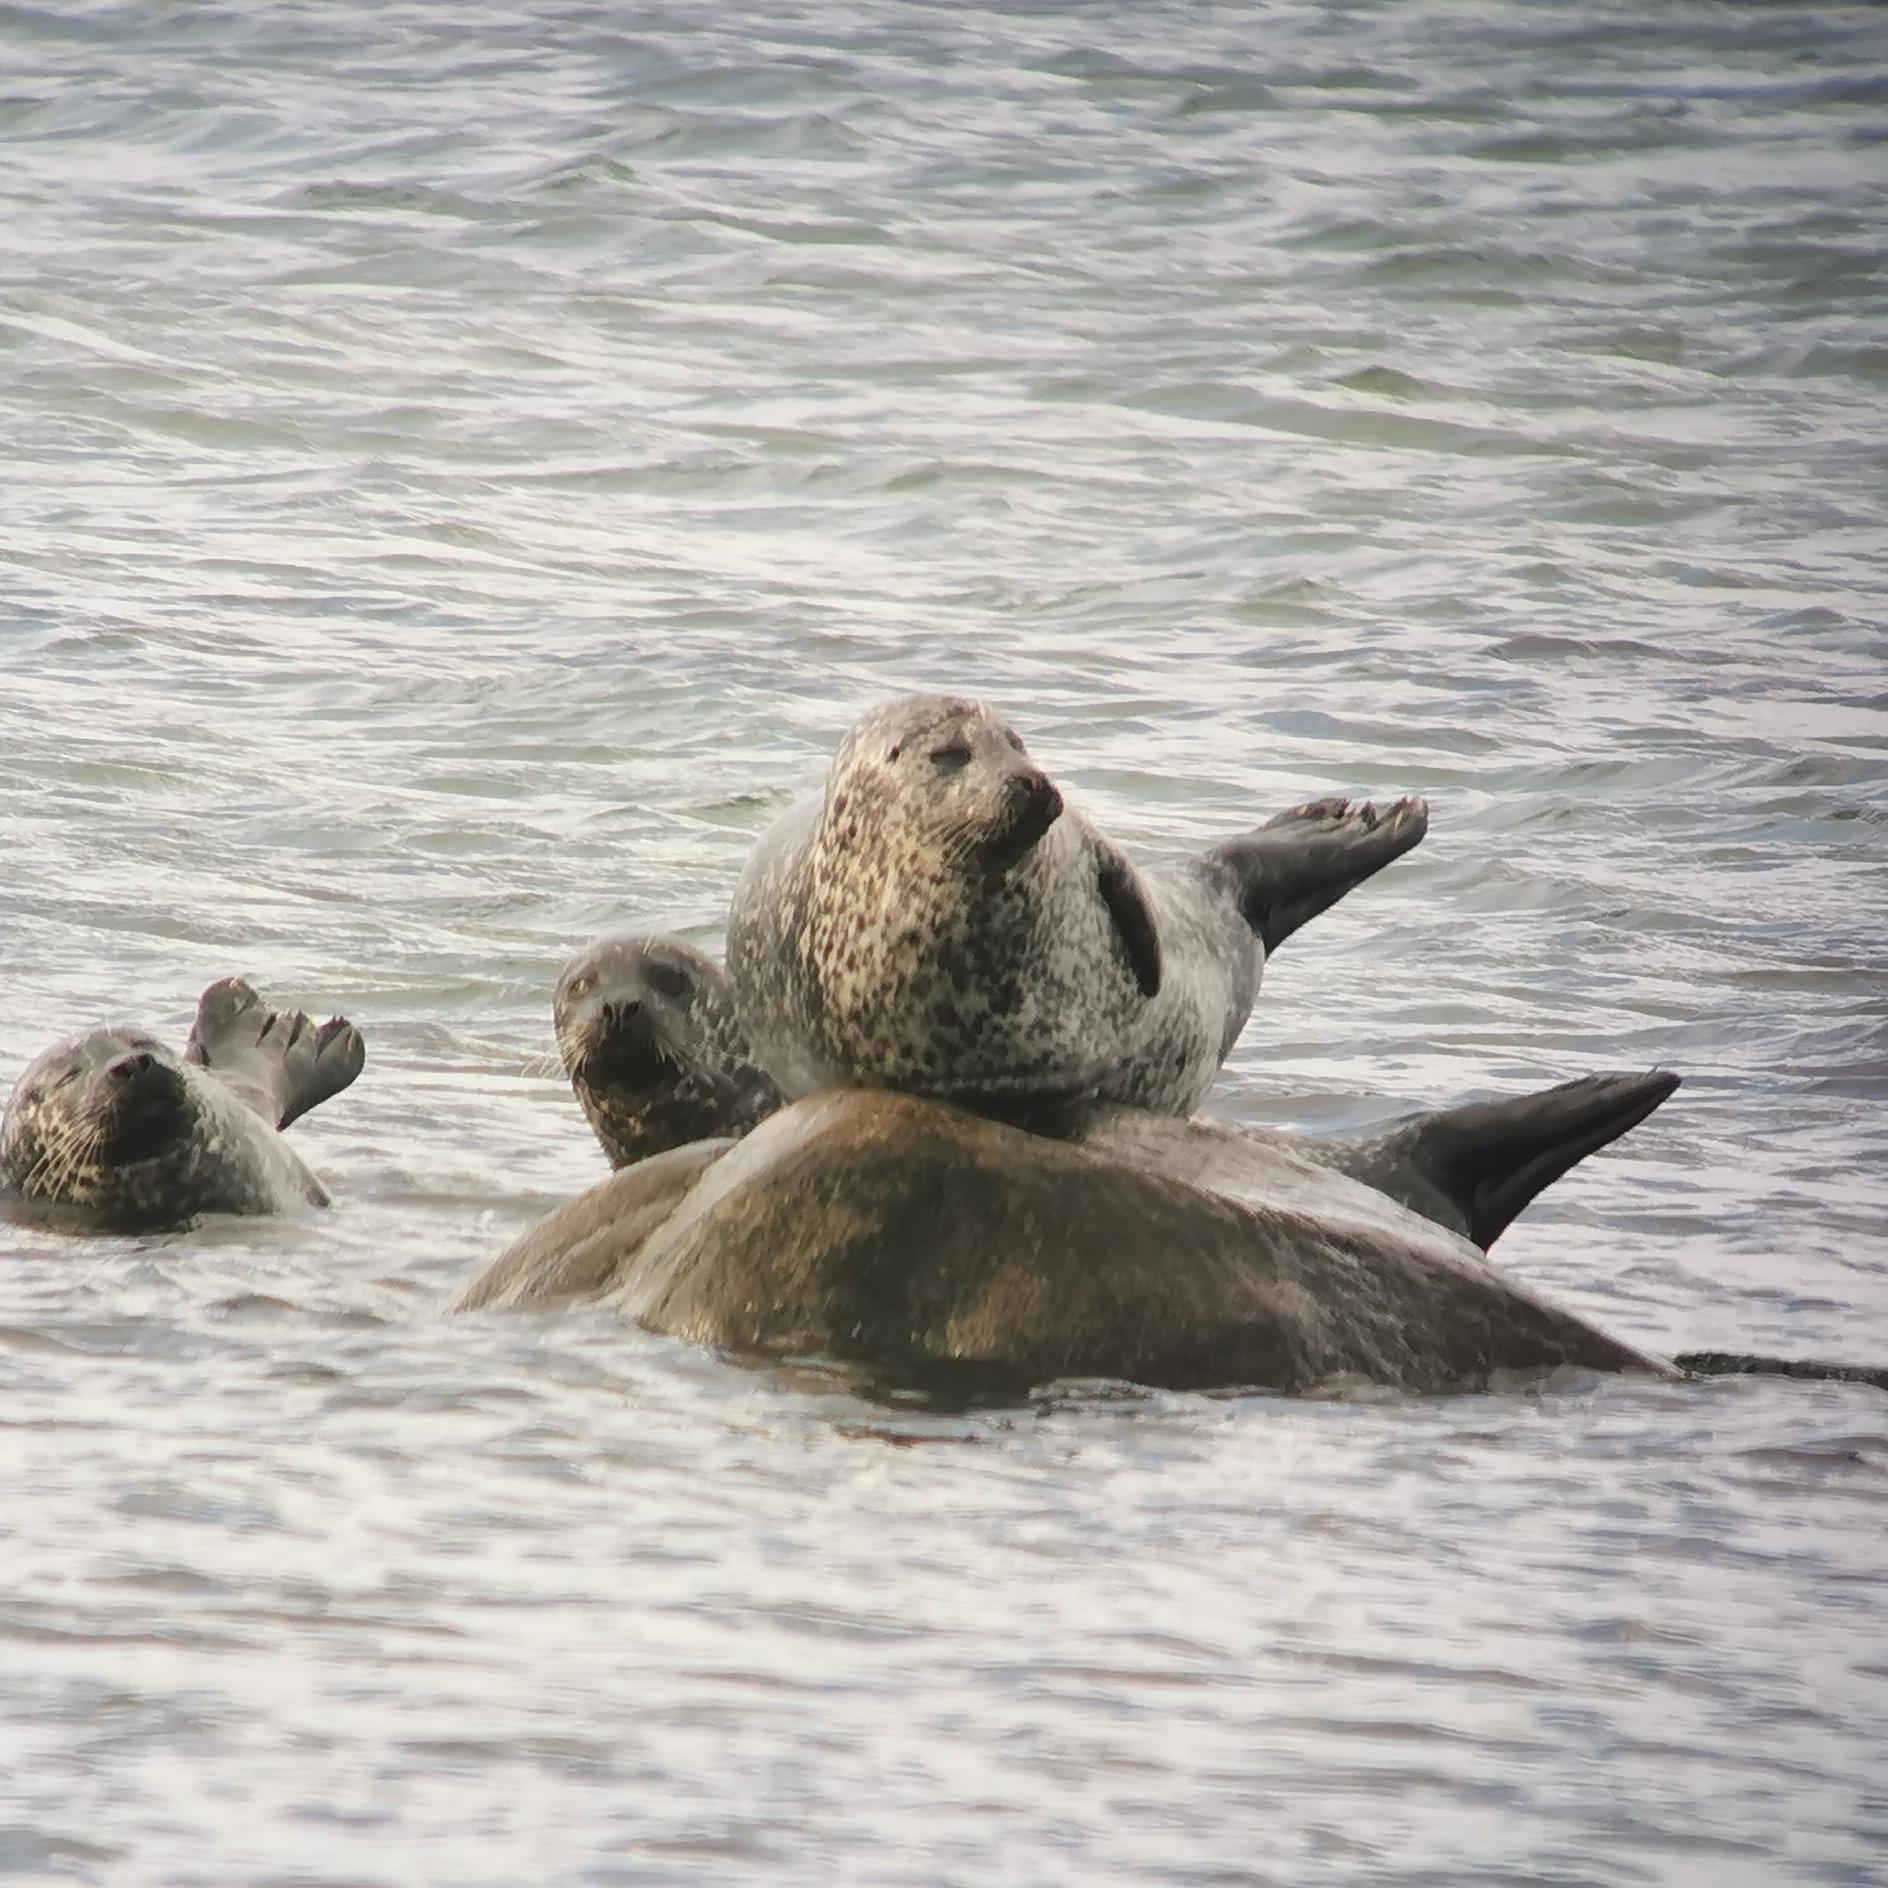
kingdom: Animalia
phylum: Chordata
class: Mammalia
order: Carnivora
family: Phocidae
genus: Phoca
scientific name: Phoca vitulina
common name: Spættet sæl
